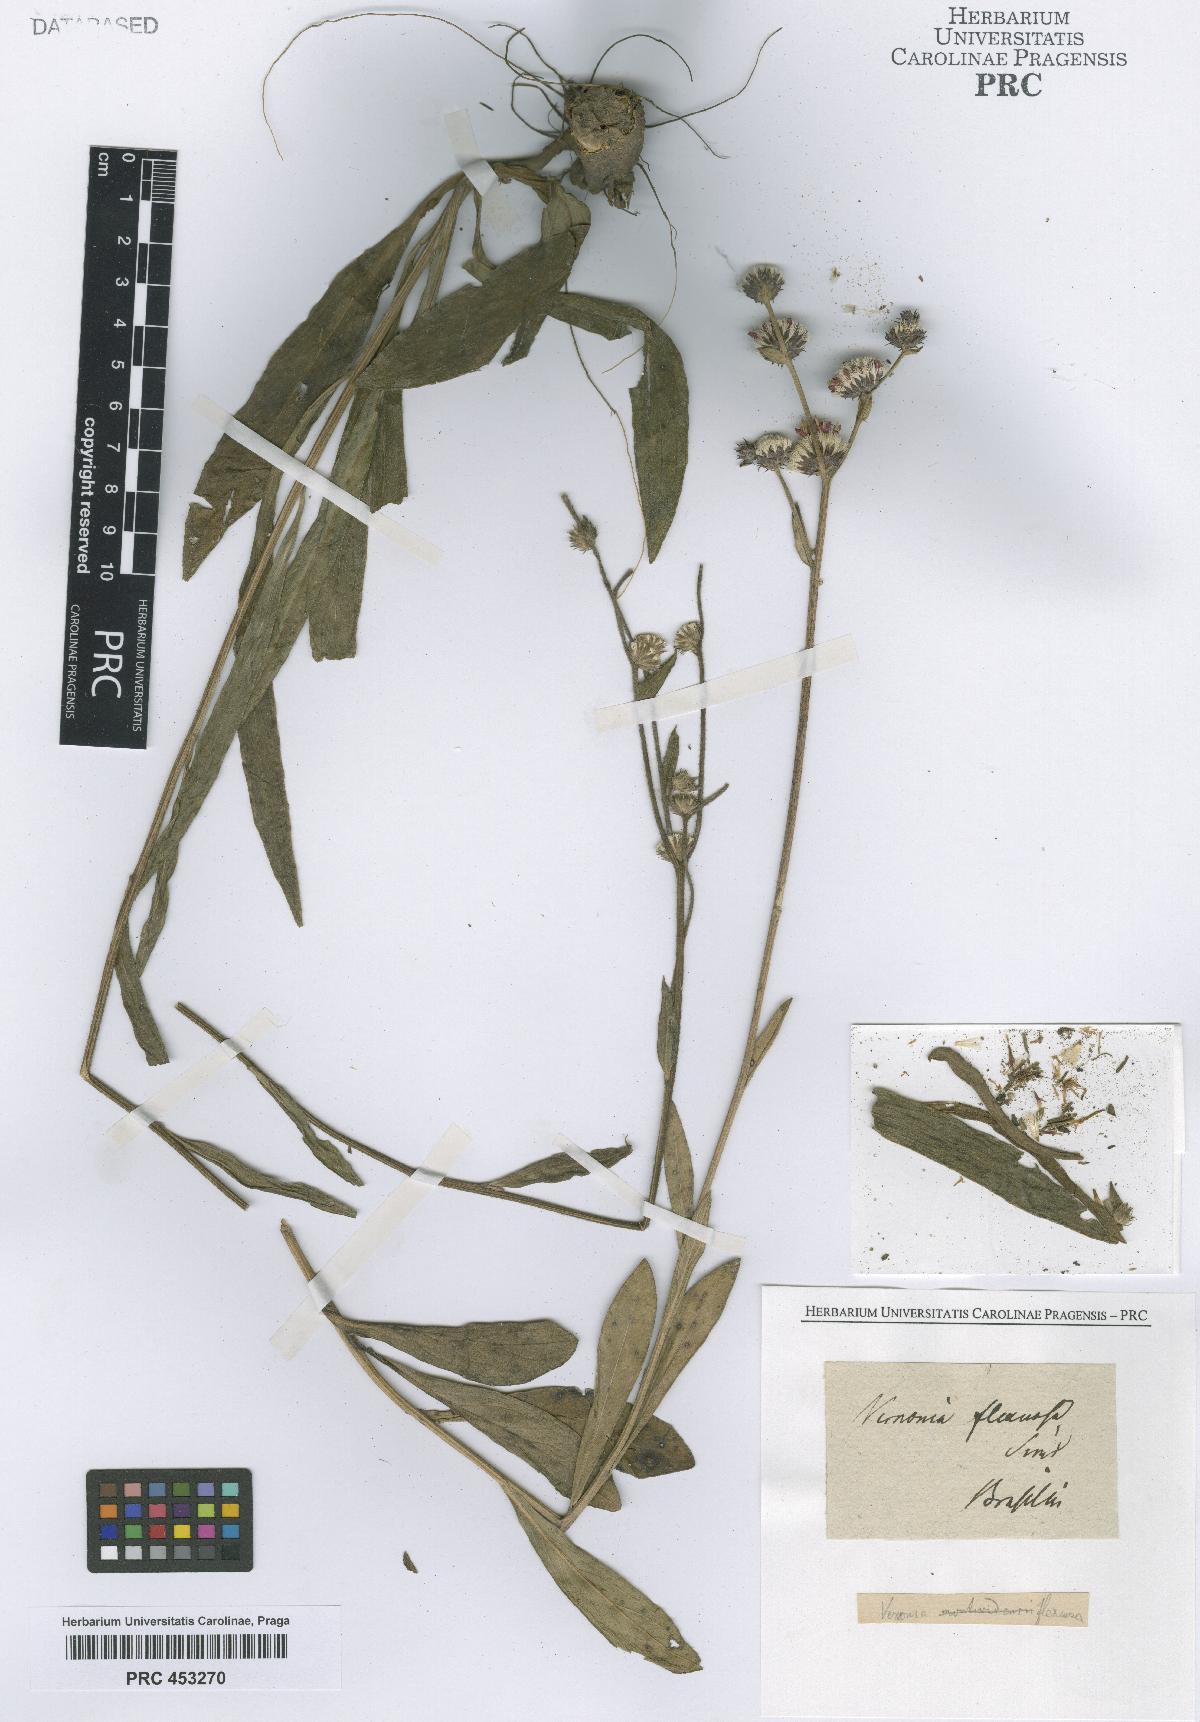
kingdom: Plantae
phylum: Tracheophyta
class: Magnoliopsida
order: Asterales
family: Asteraceae
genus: Vernonia
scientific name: Vernonia
